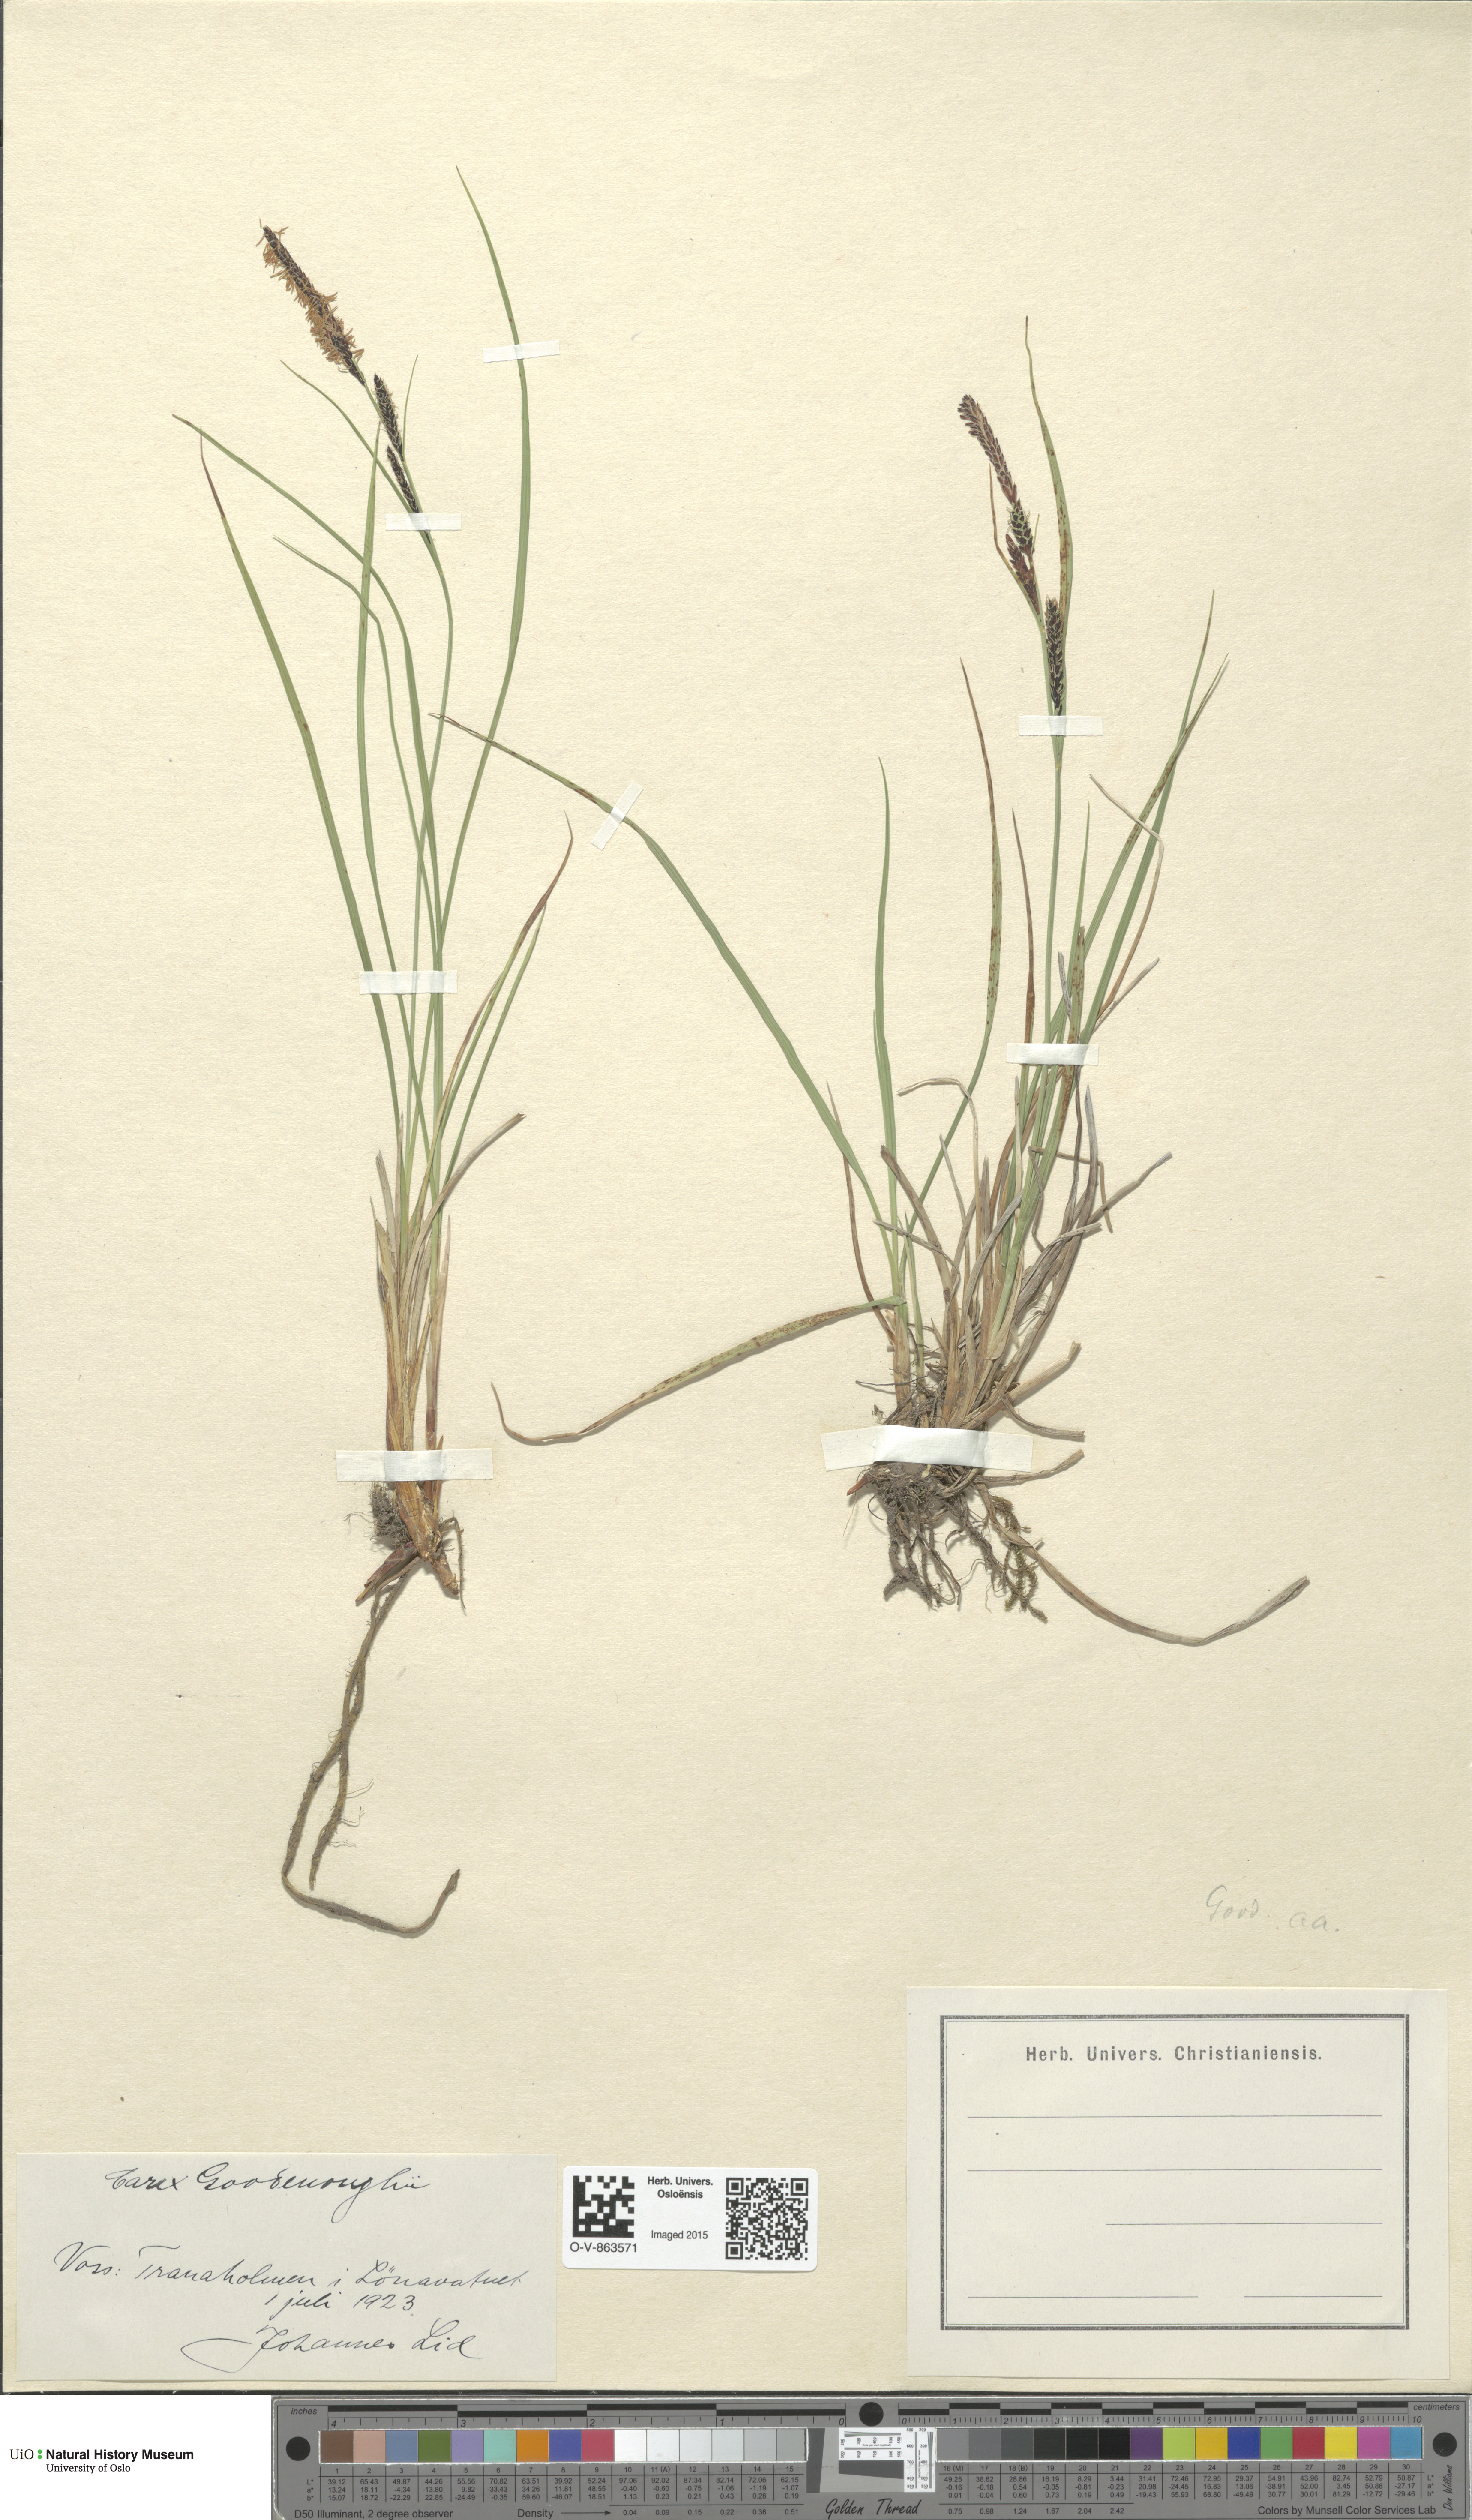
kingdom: Plantae
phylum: Tracheophyta
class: Liliopsida
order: Poales
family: Cyperaceae
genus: Carex
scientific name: Carex nigra
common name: Common sedge
